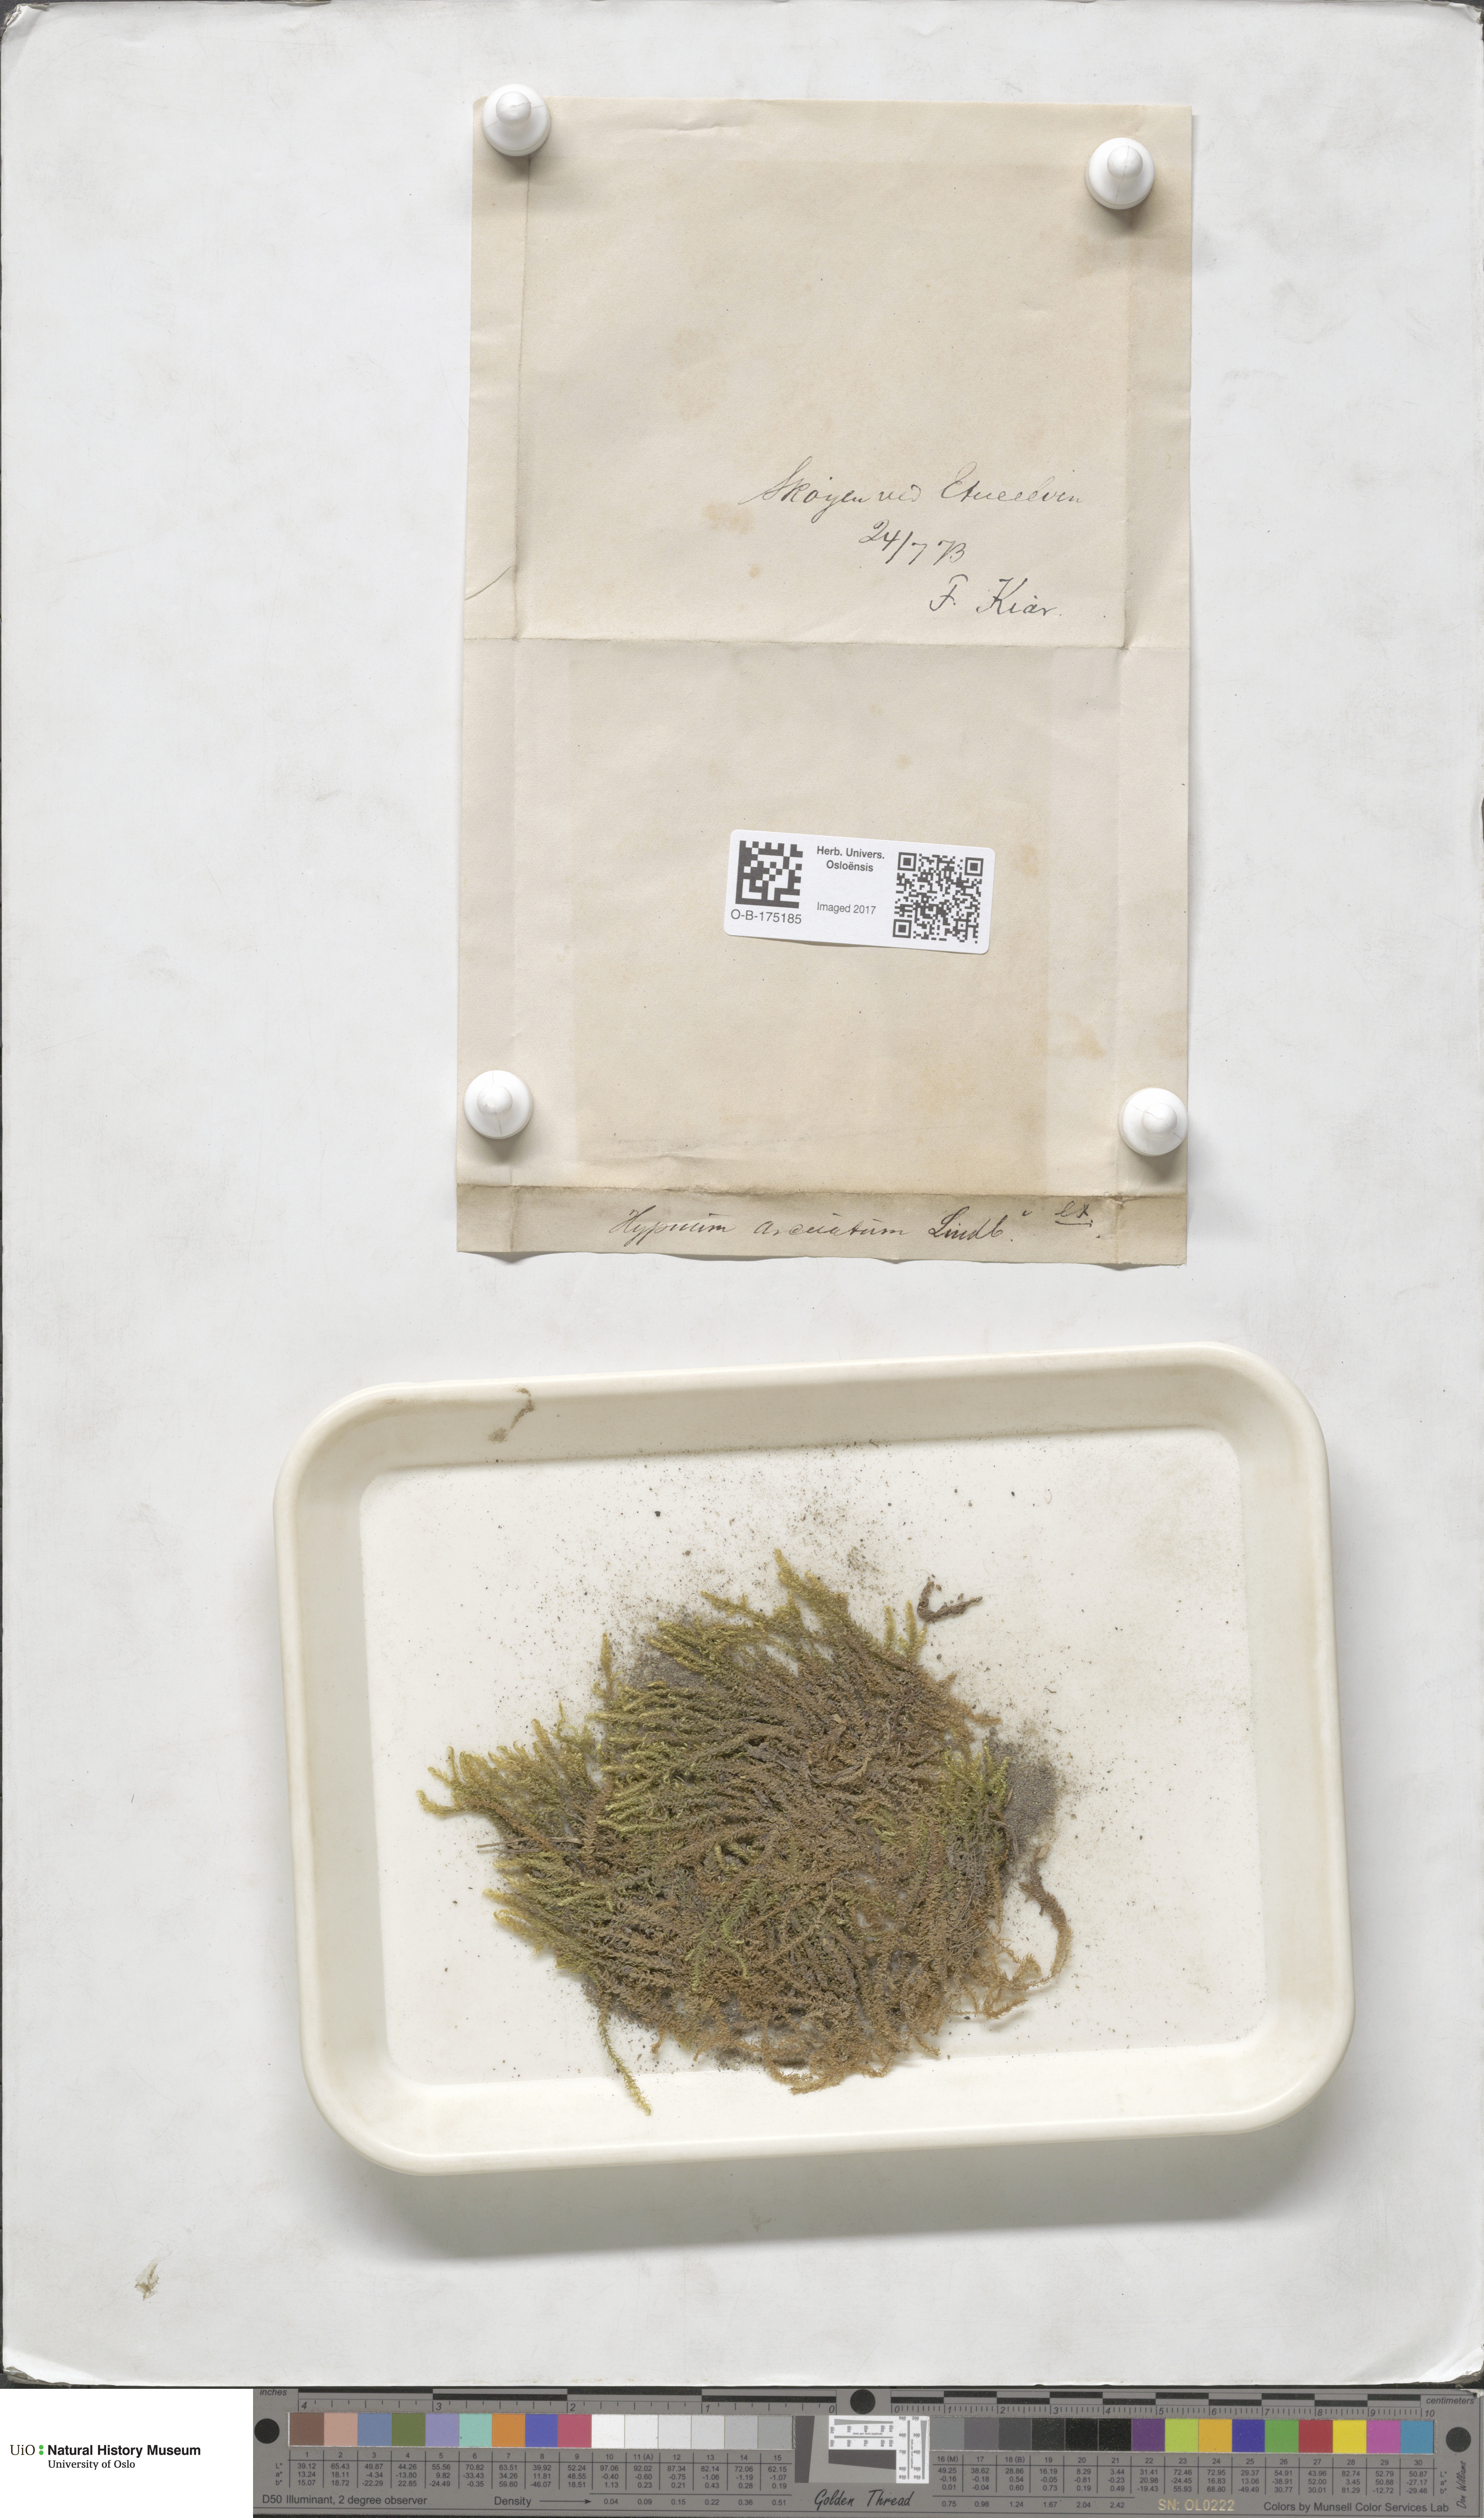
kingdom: Plantae
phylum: Bryophyta
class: Bryopsida
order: Hypnales
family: Pylaisiaceae
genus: Calliergonella
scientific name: Calliergonella lindbergii
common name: Lindberg's plait-moss
